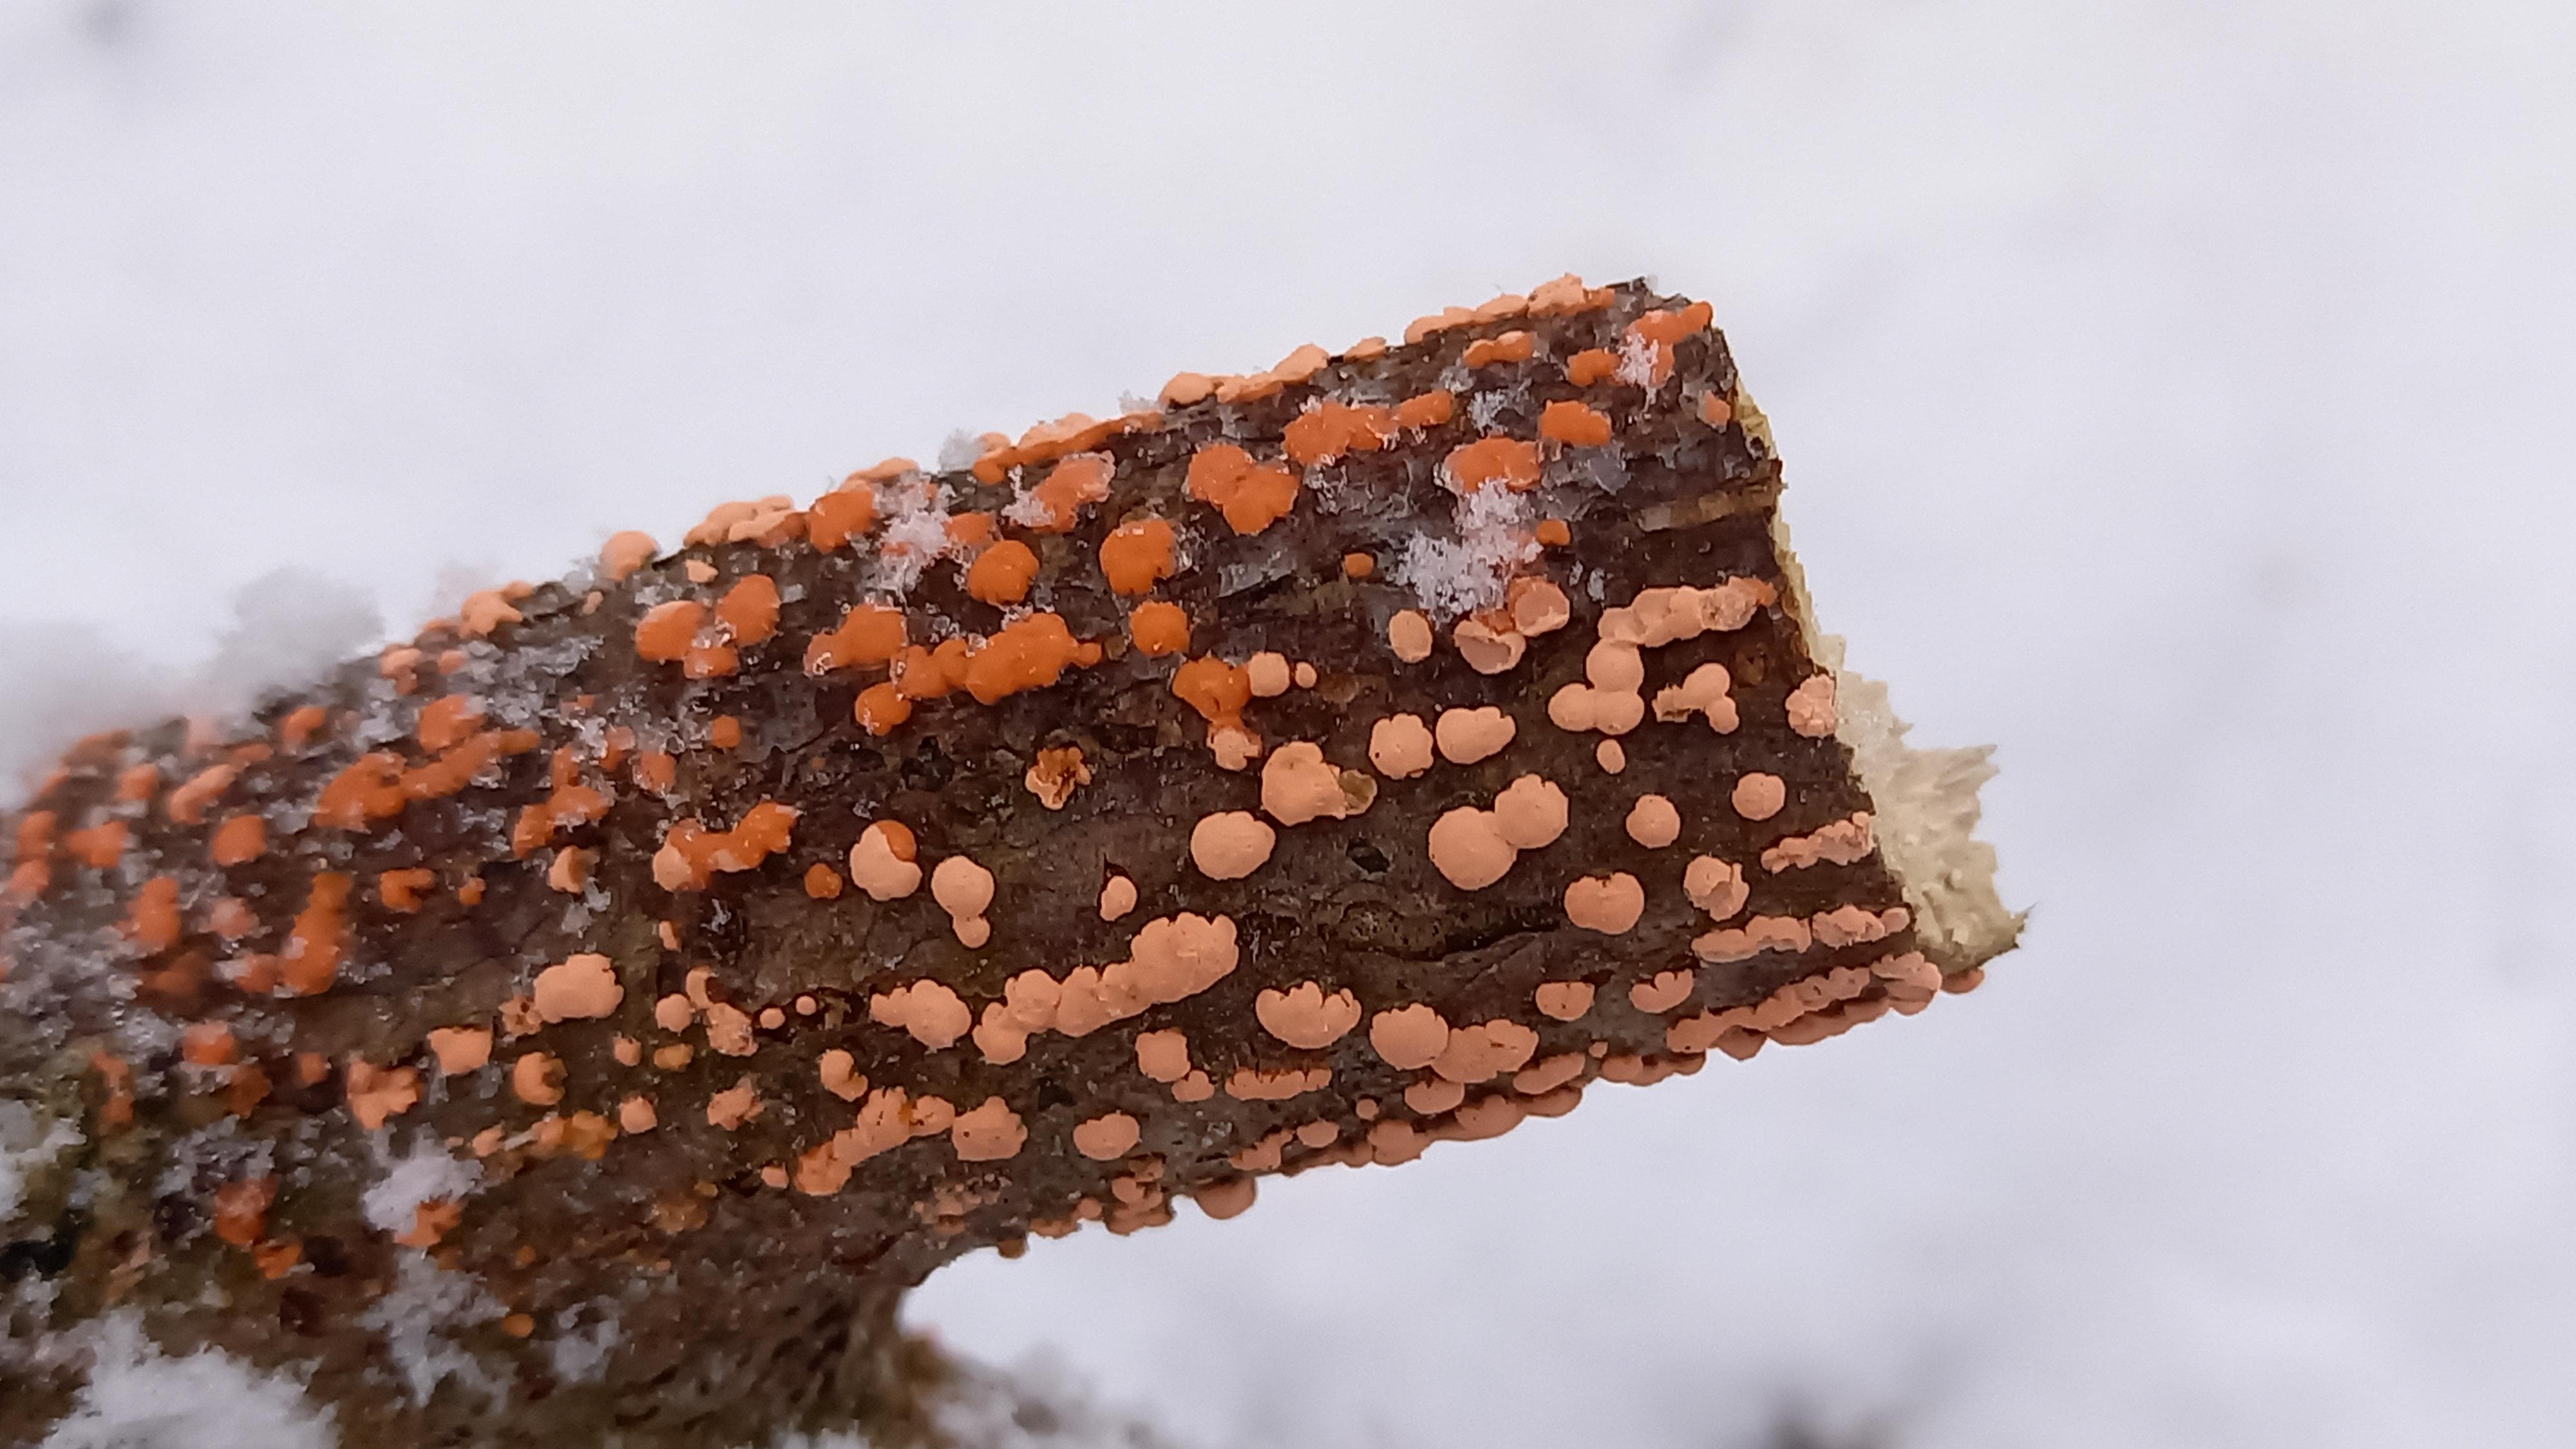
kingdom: Fungi
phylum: Ascomycota
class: Sordariomycetes
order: Hypocreales
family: Nectriaceae
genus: Nectria
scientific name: Nectria cinnabarina
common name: almindelig cinnobersvamp
